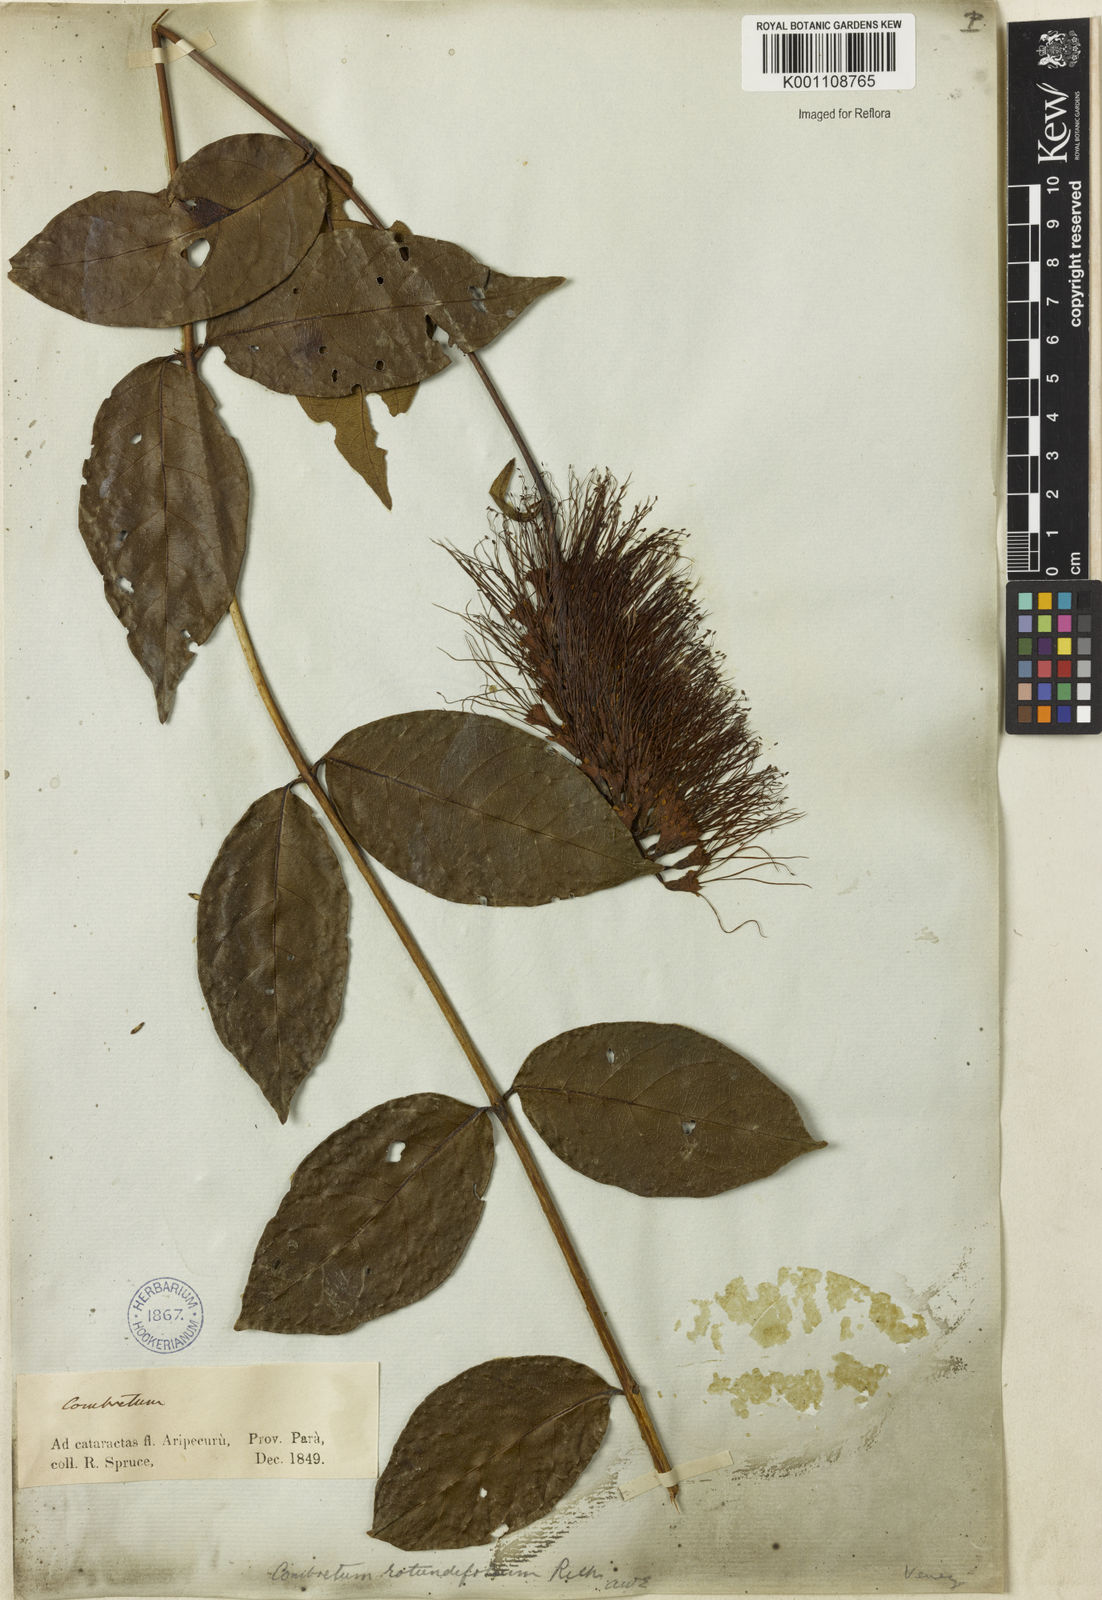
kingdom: Plantae
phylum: Tracheophyta
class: Magnoliopsida
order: Myrtales
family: Combretaceae
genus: Combretum
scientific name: Combretum rotundifolium
